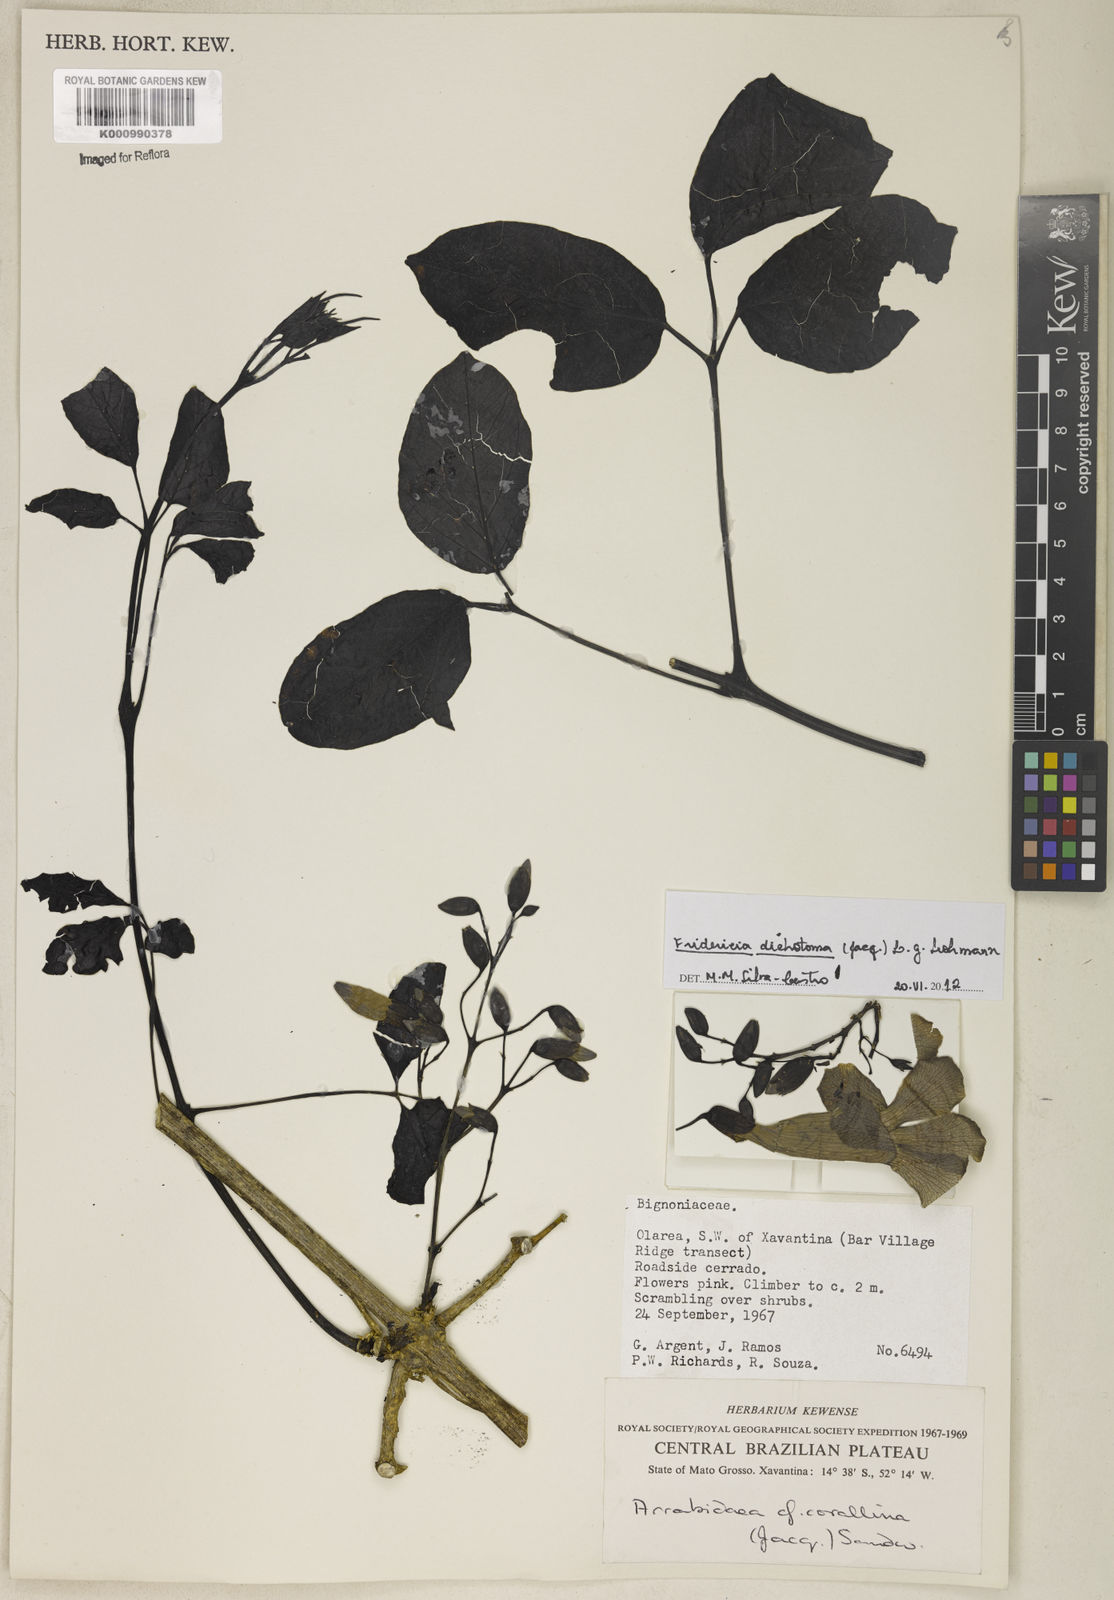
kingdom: Plantae
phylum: Tracheophyta
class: Magnoliopsida
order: Lamiales
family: Bignoniaceae
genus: Tanaecium
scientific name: Tanaecium dichotomum
